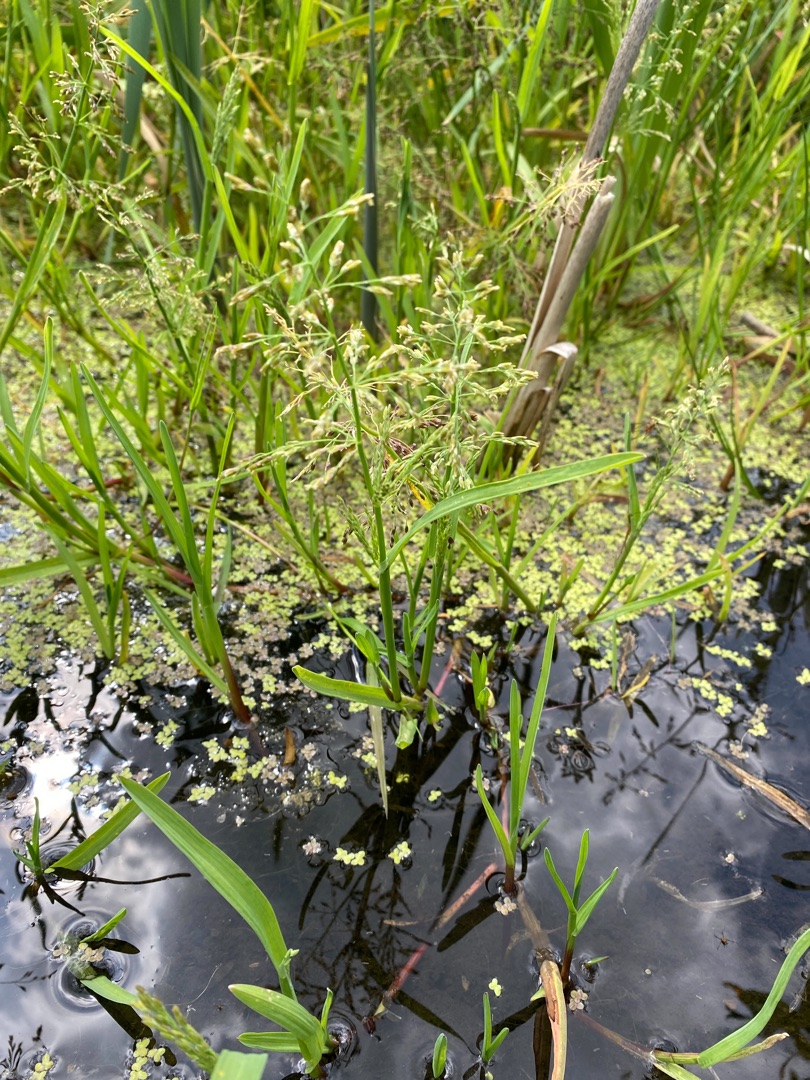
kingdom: Plantae
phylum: Tracheophyta
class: Liliopsida
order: Poales
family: Poaceae
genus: Catabrosa
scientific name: Catabrosa aquatica
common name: Tæppegræs
